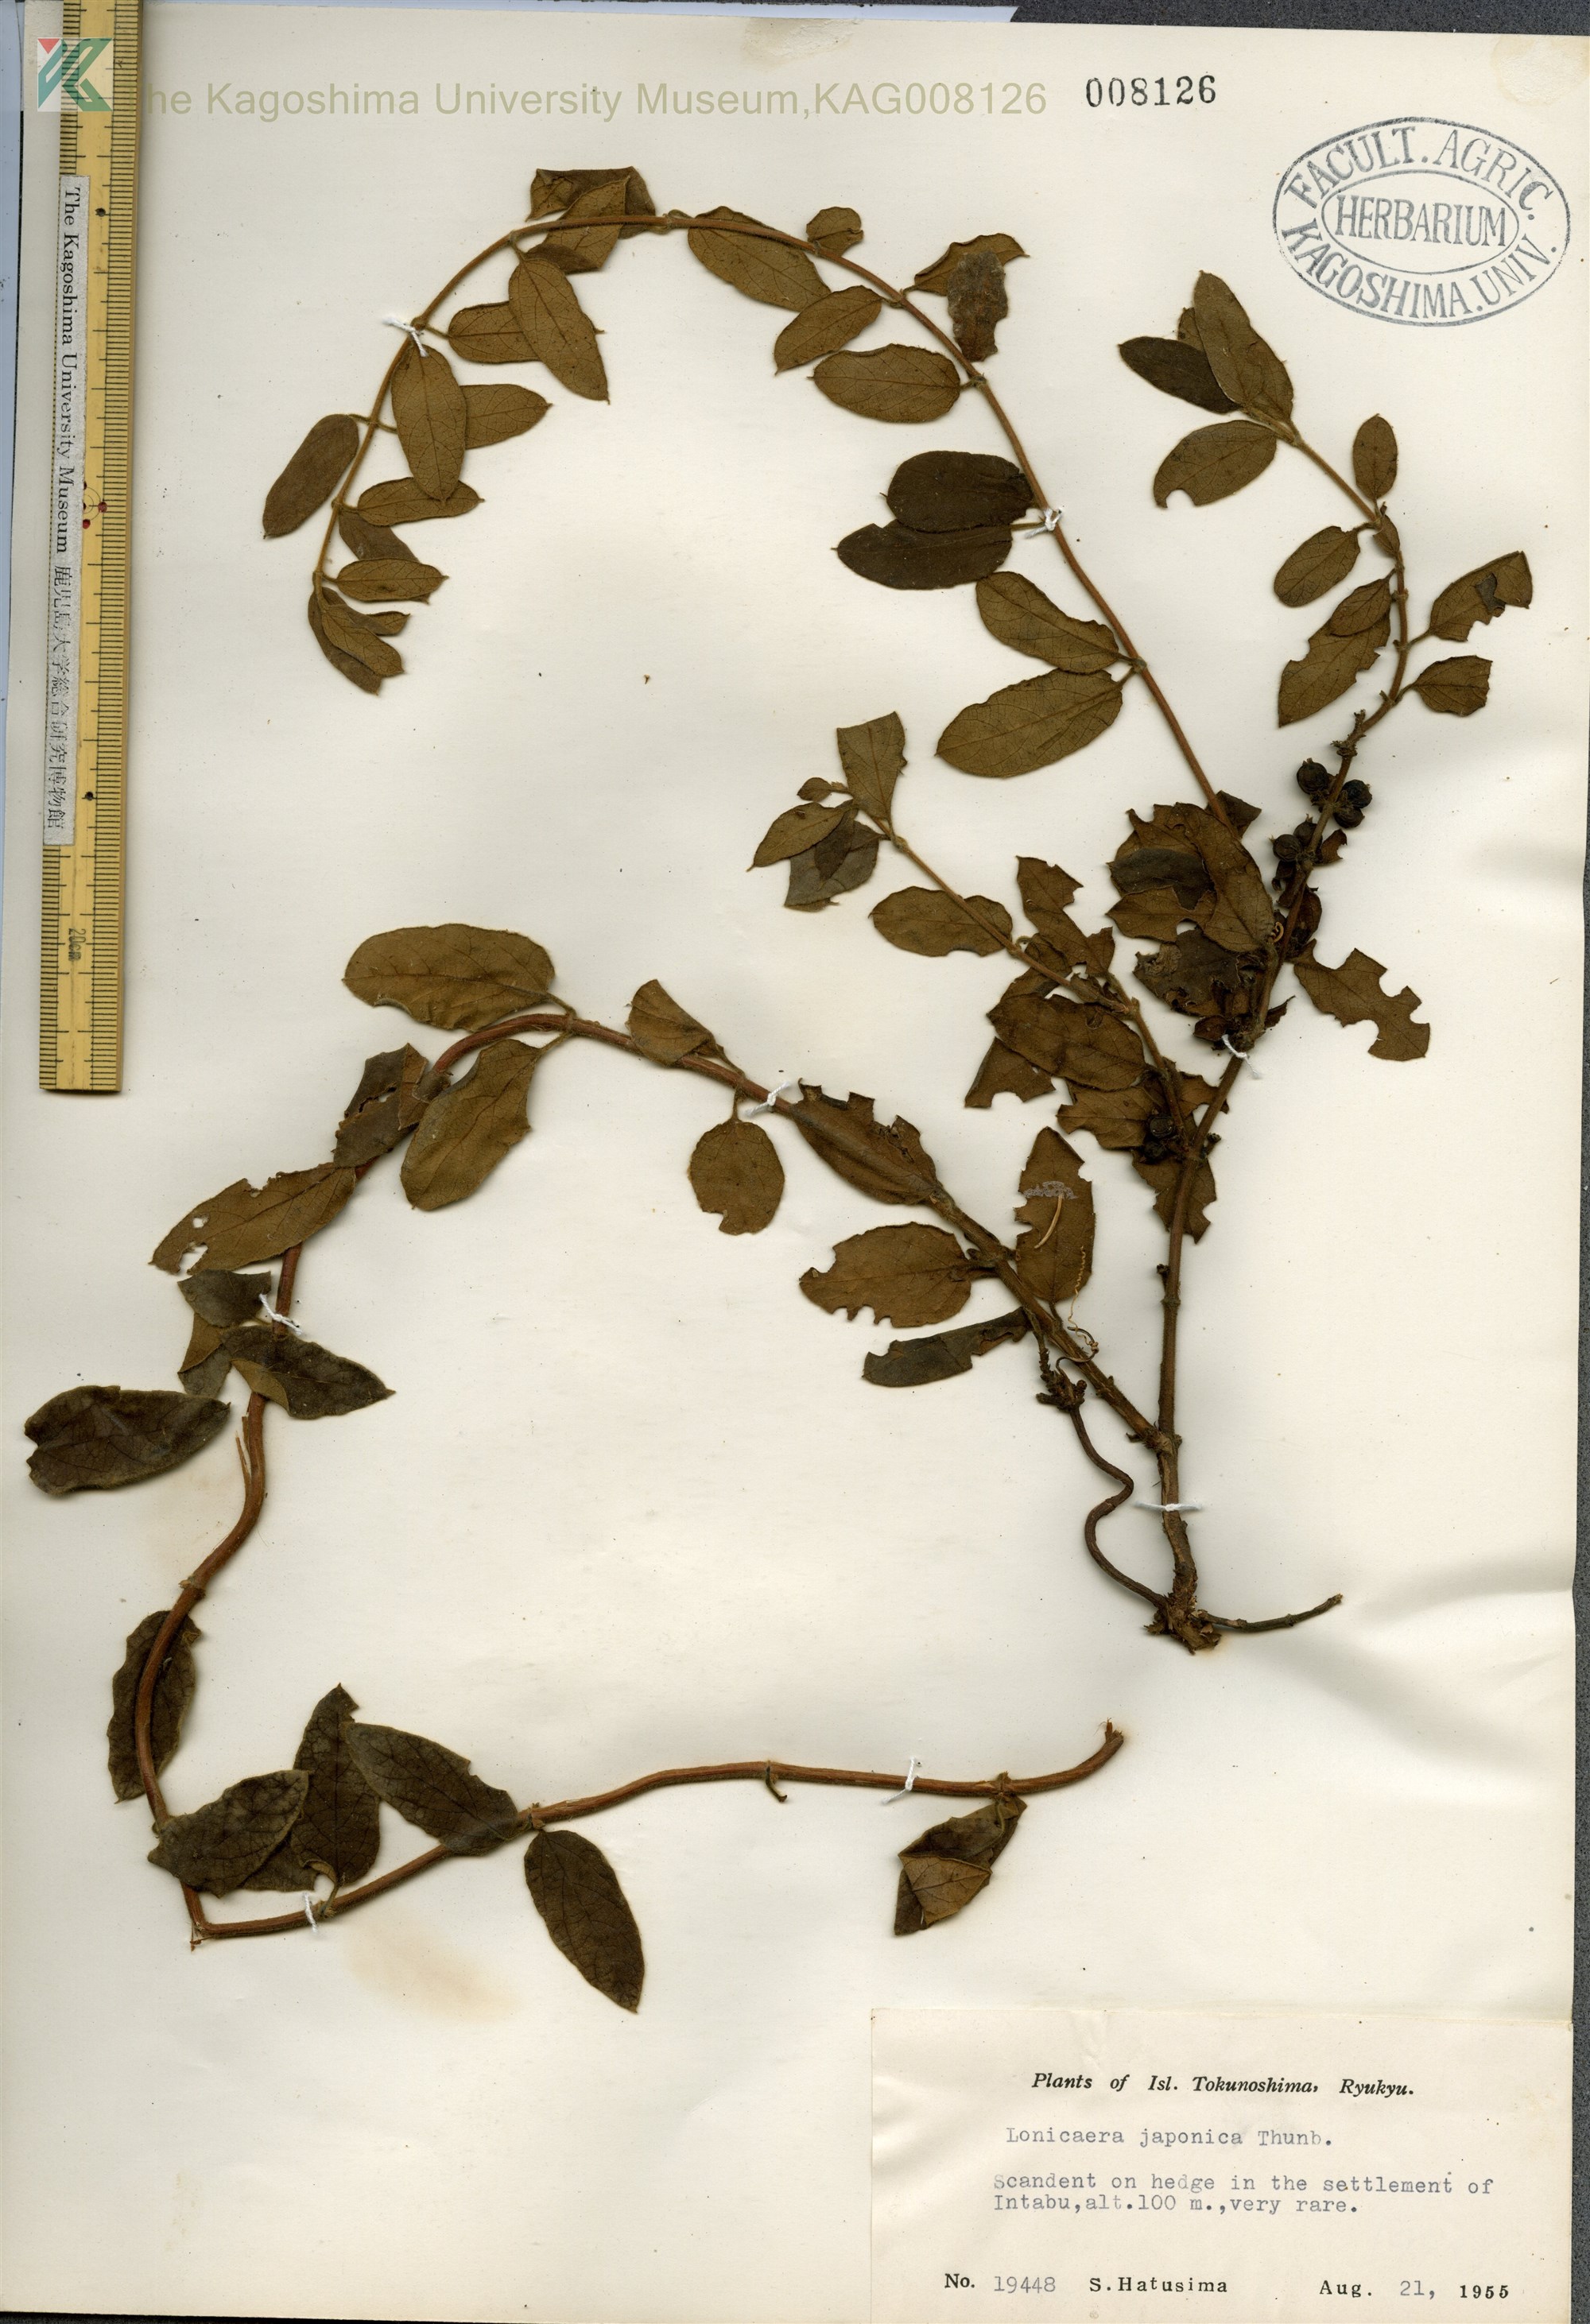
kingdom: Plantae
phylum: Tracheophyta
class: Magnoliopsida
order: Dipsacales
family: Caprifoliaceae
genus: Lonicera
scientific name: Lonicera japonica
